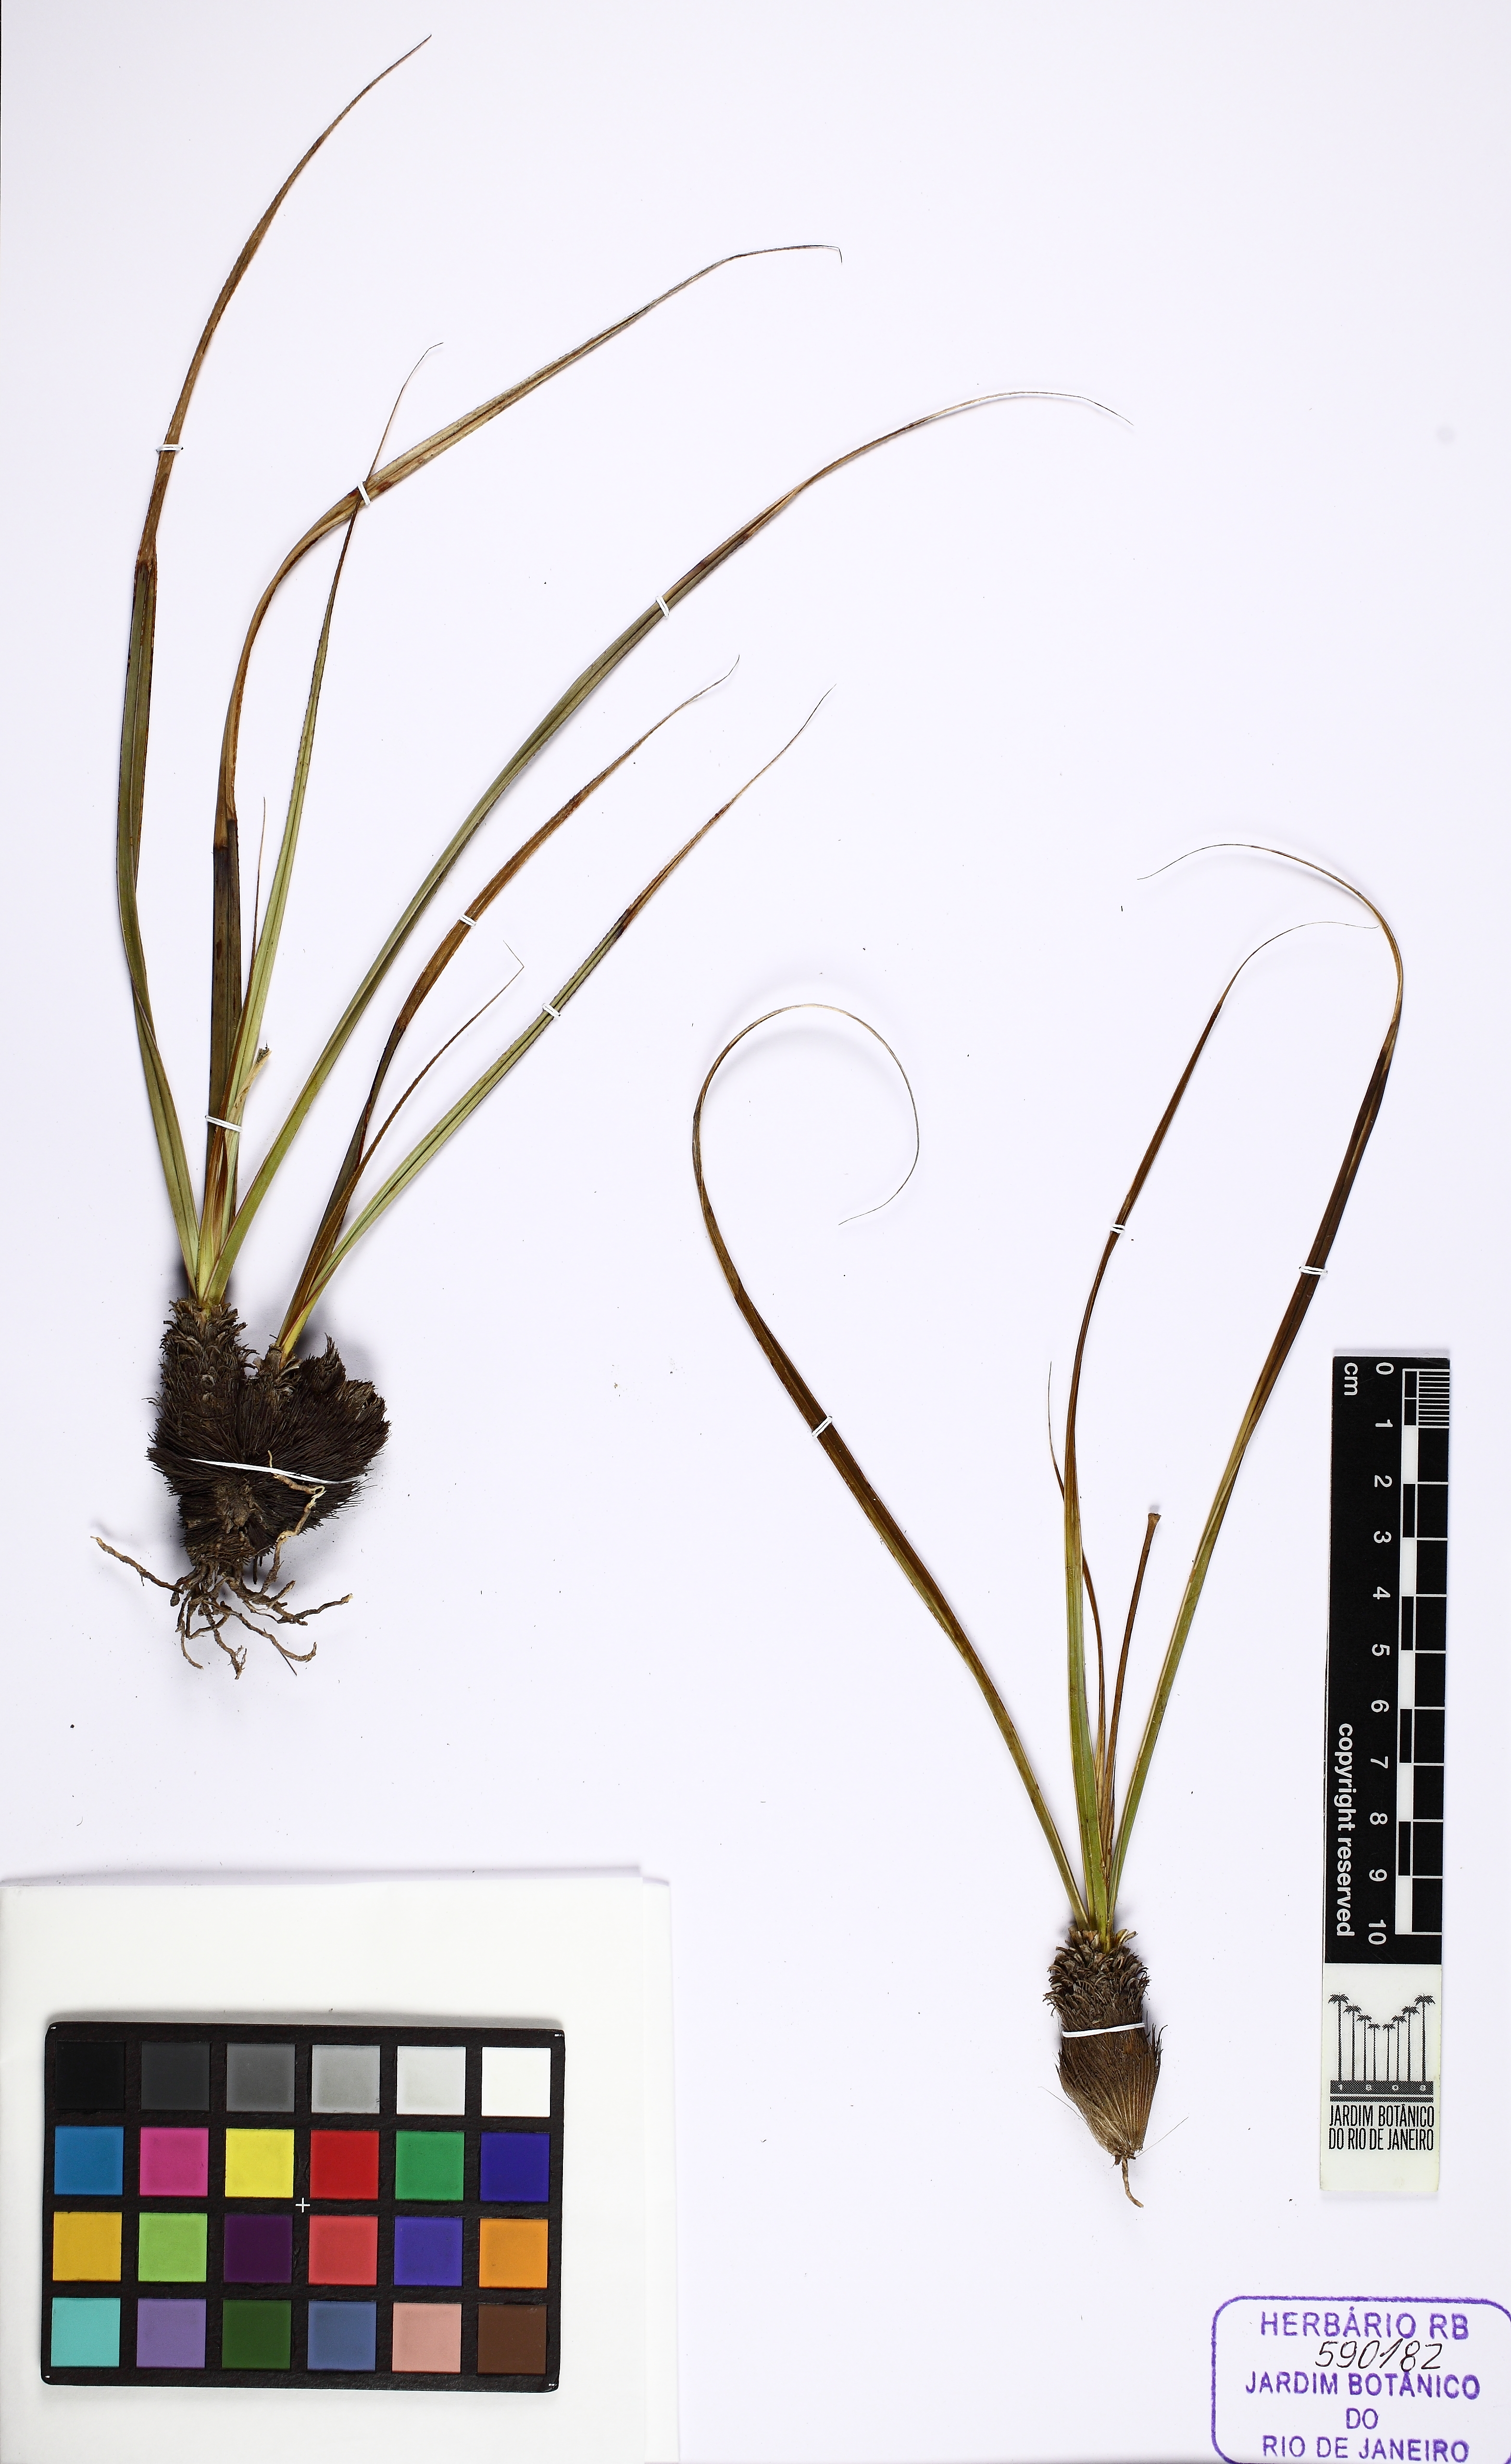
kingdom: Plantae
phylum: Tracheophyta
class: Liliopsida
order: Pandanales
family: Velloziaceae
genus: Vellozia
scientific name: Vellozia albiflora
